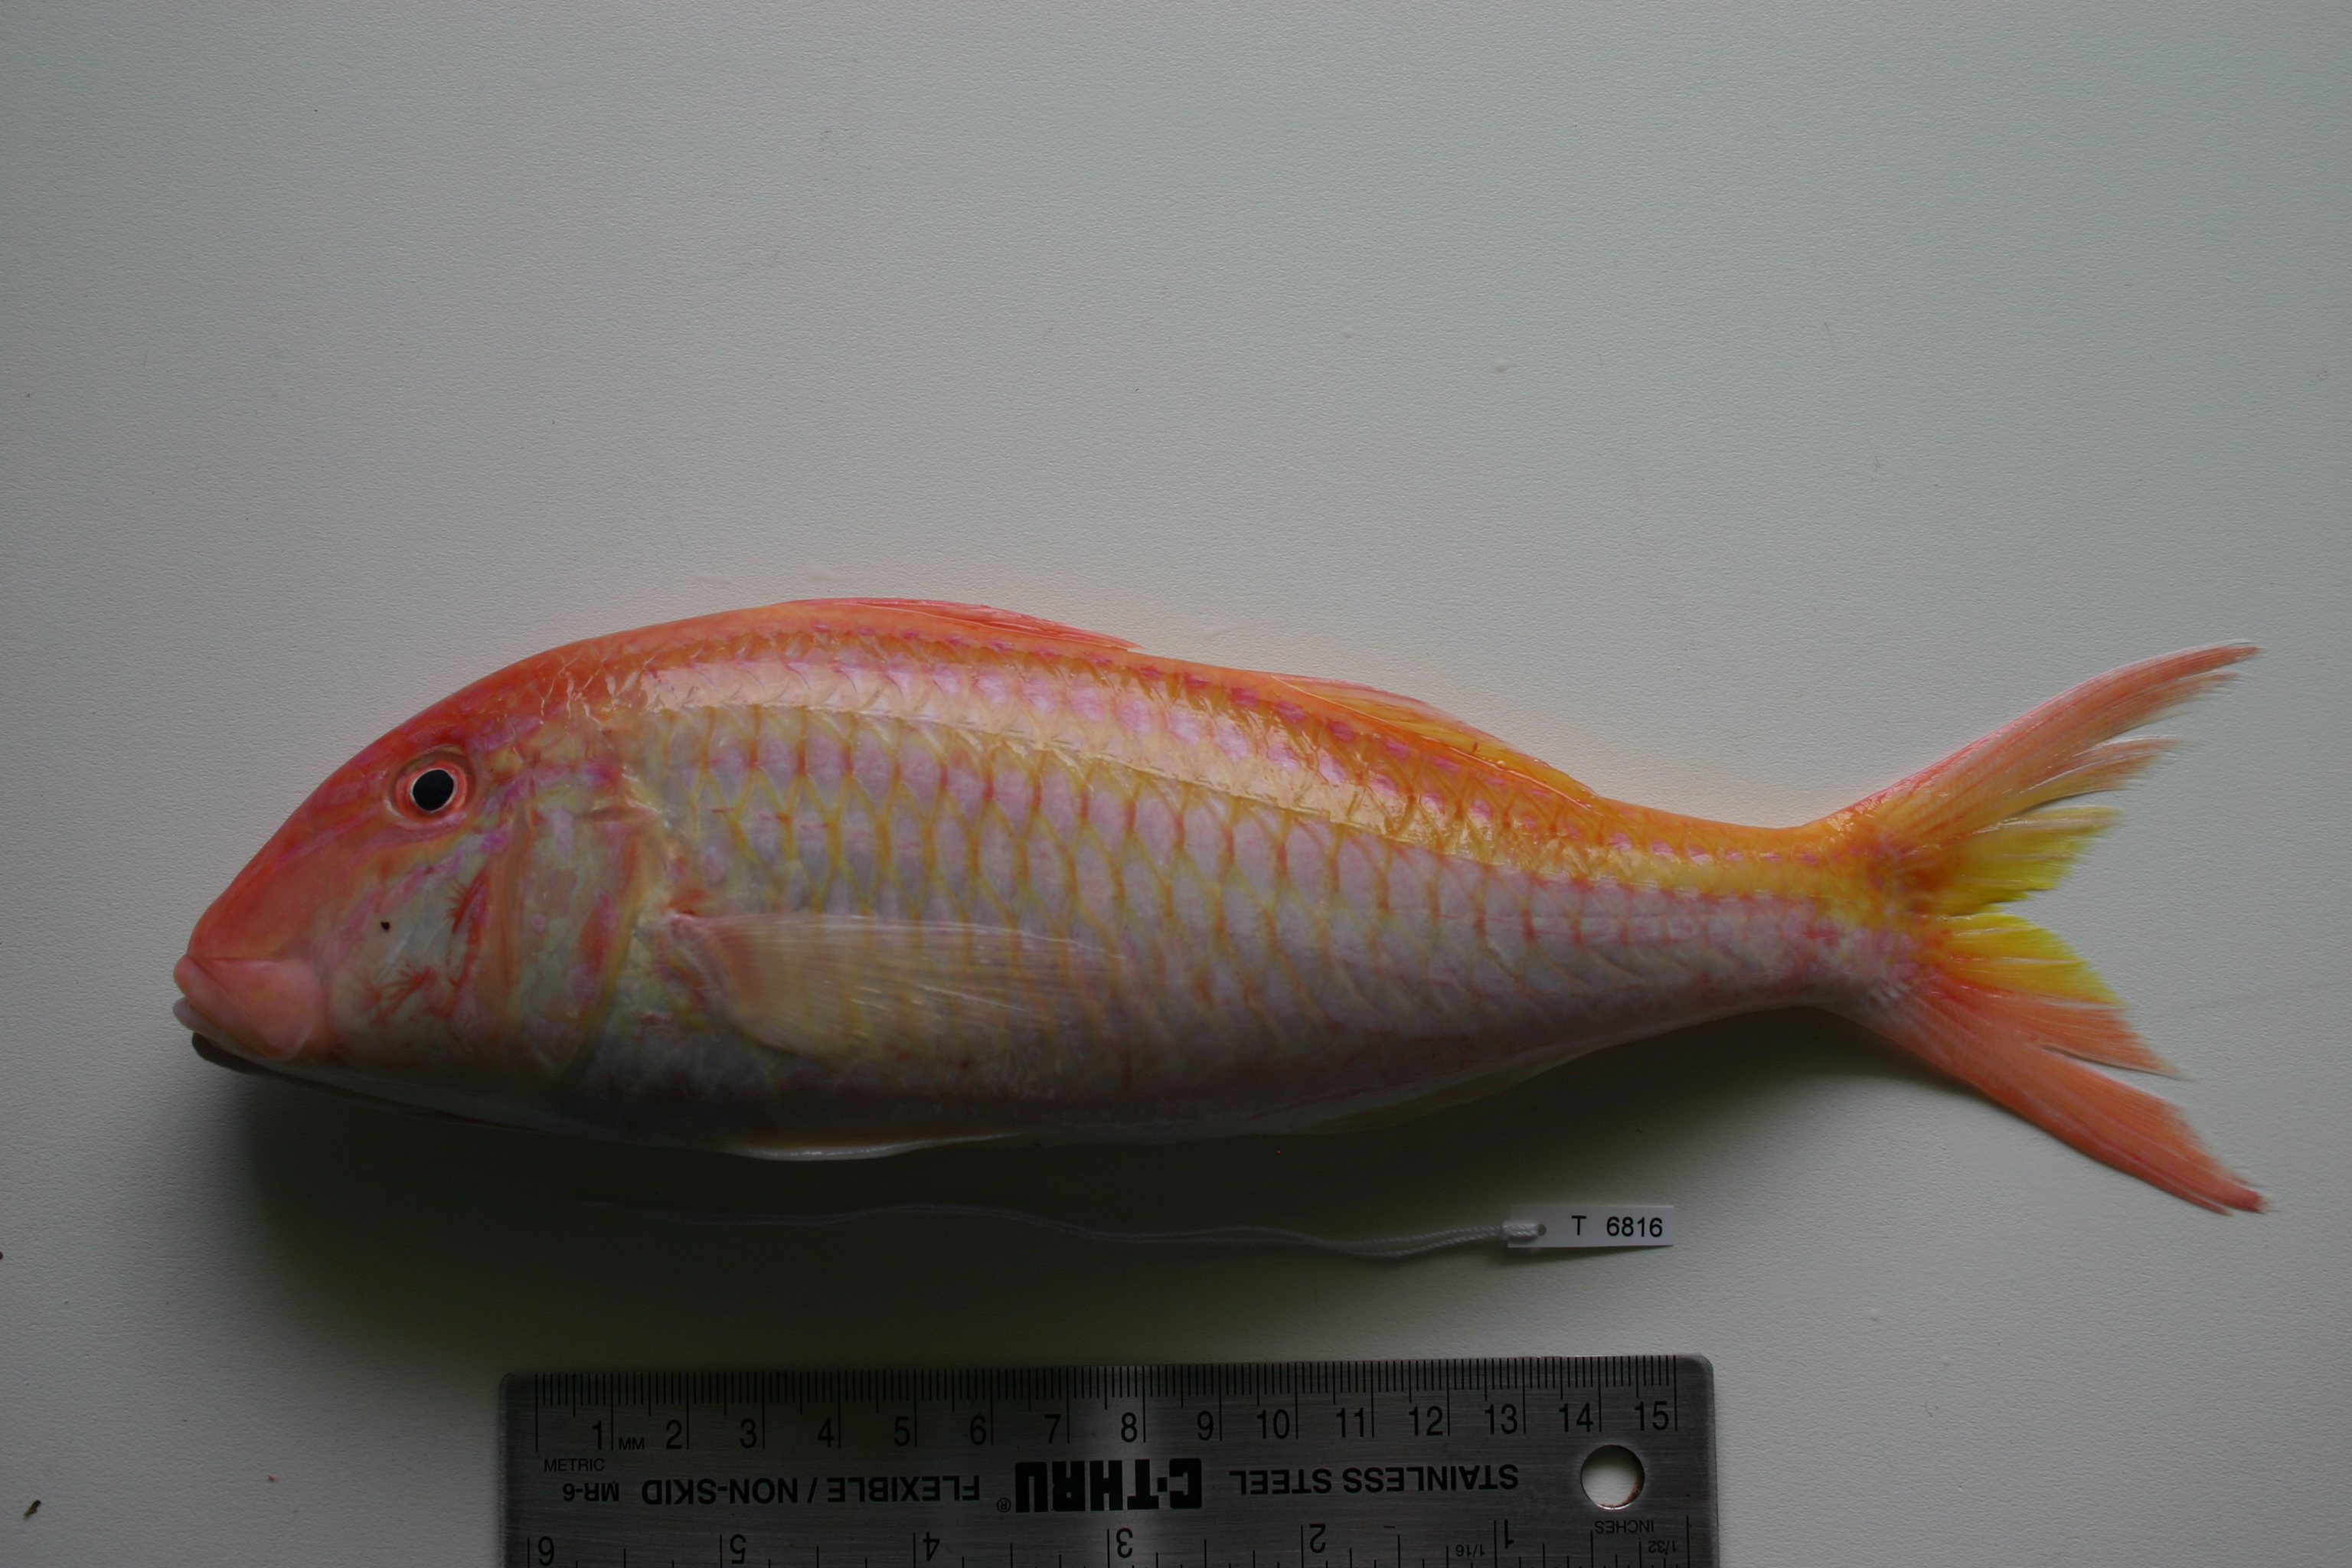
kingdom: Animalia
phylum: Chordata
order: Perciformes
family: Mullidae
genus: Parupeneus
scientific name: Parupeneus procerigena
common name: Deep-cheek goatfish
